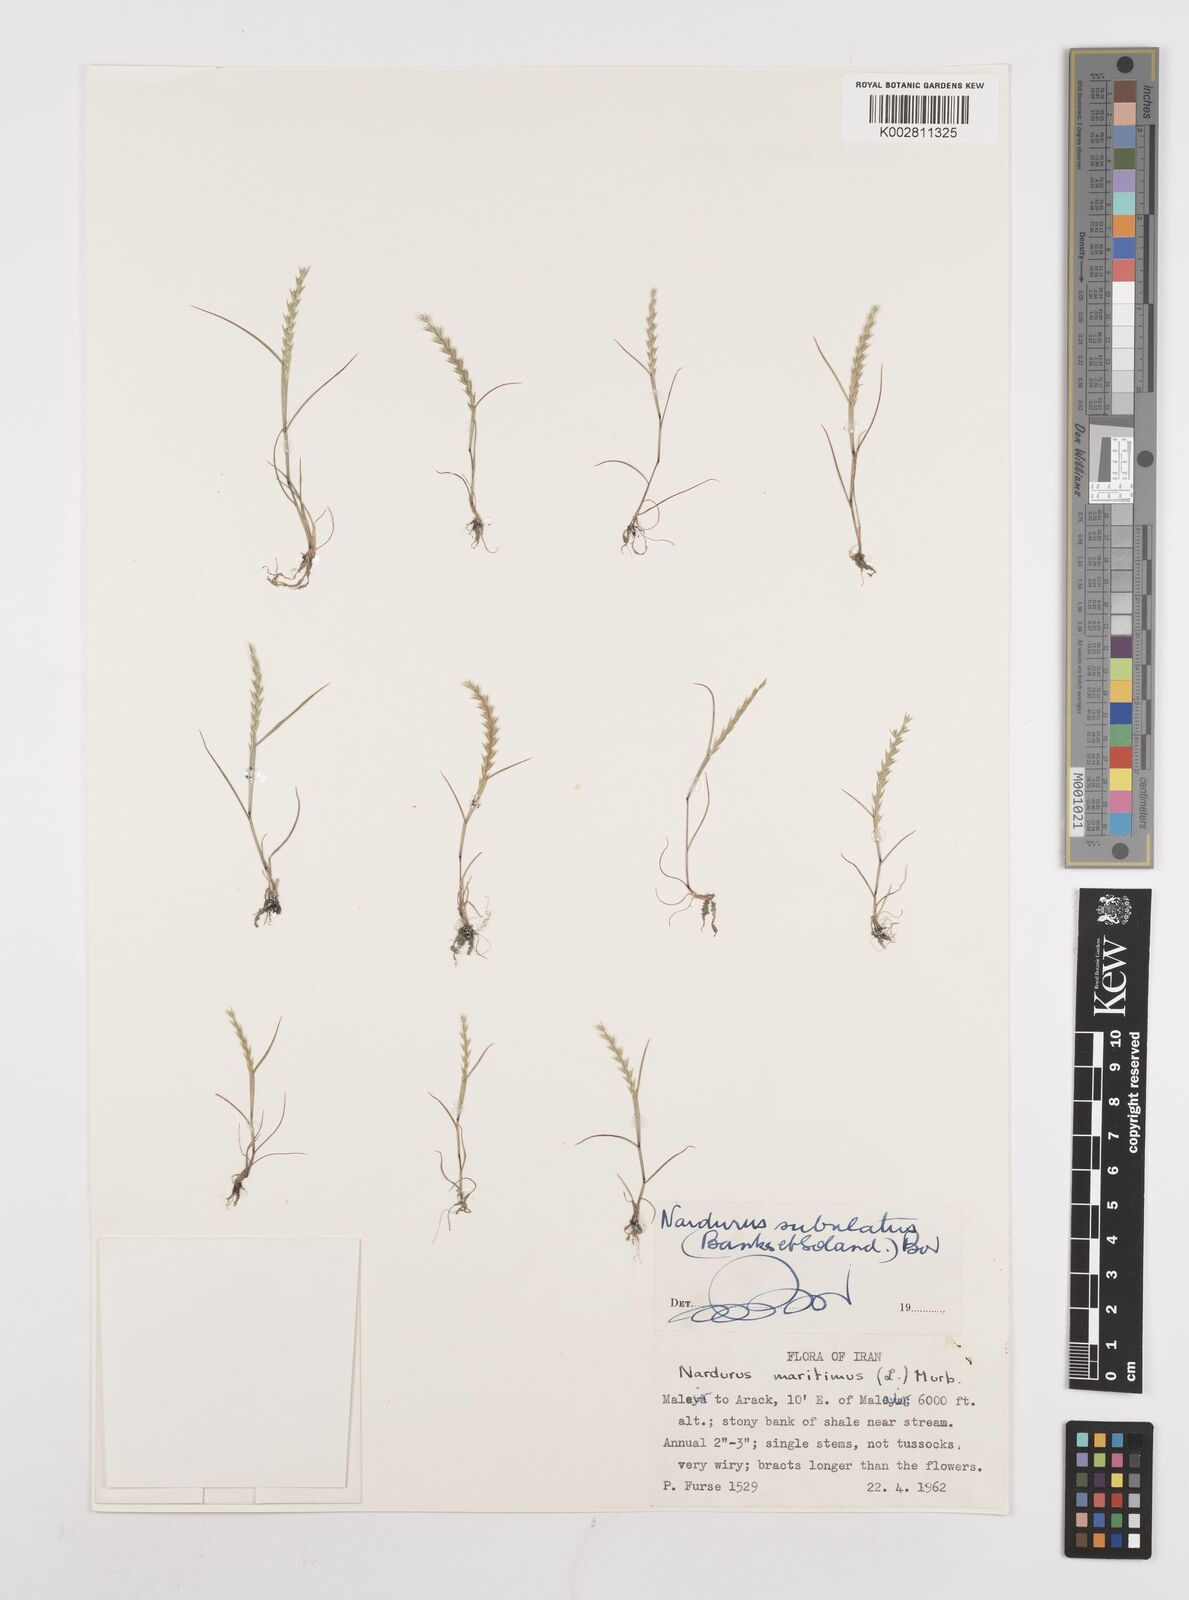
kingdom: Plantae
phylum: Tracheophyta
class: Liliopsida
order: Poales
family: Poaceae
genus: Festuca
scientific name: Festuca orientalis
